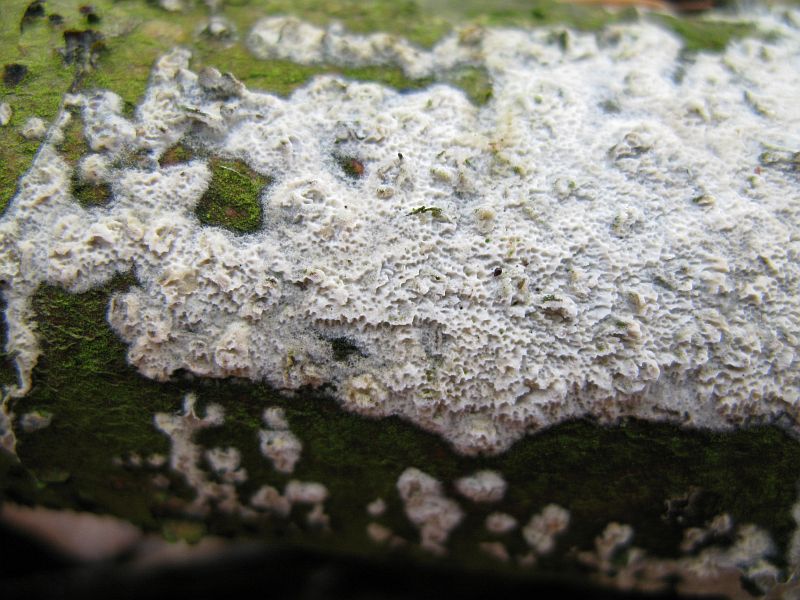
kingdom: Fungi
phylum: Basidiomycota
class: Agaricomycetes
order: Hymenochaetales
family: Schizoporaceae
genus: Schizopora
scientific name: Schizopora paradoxa
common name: hvid tandsvamp
